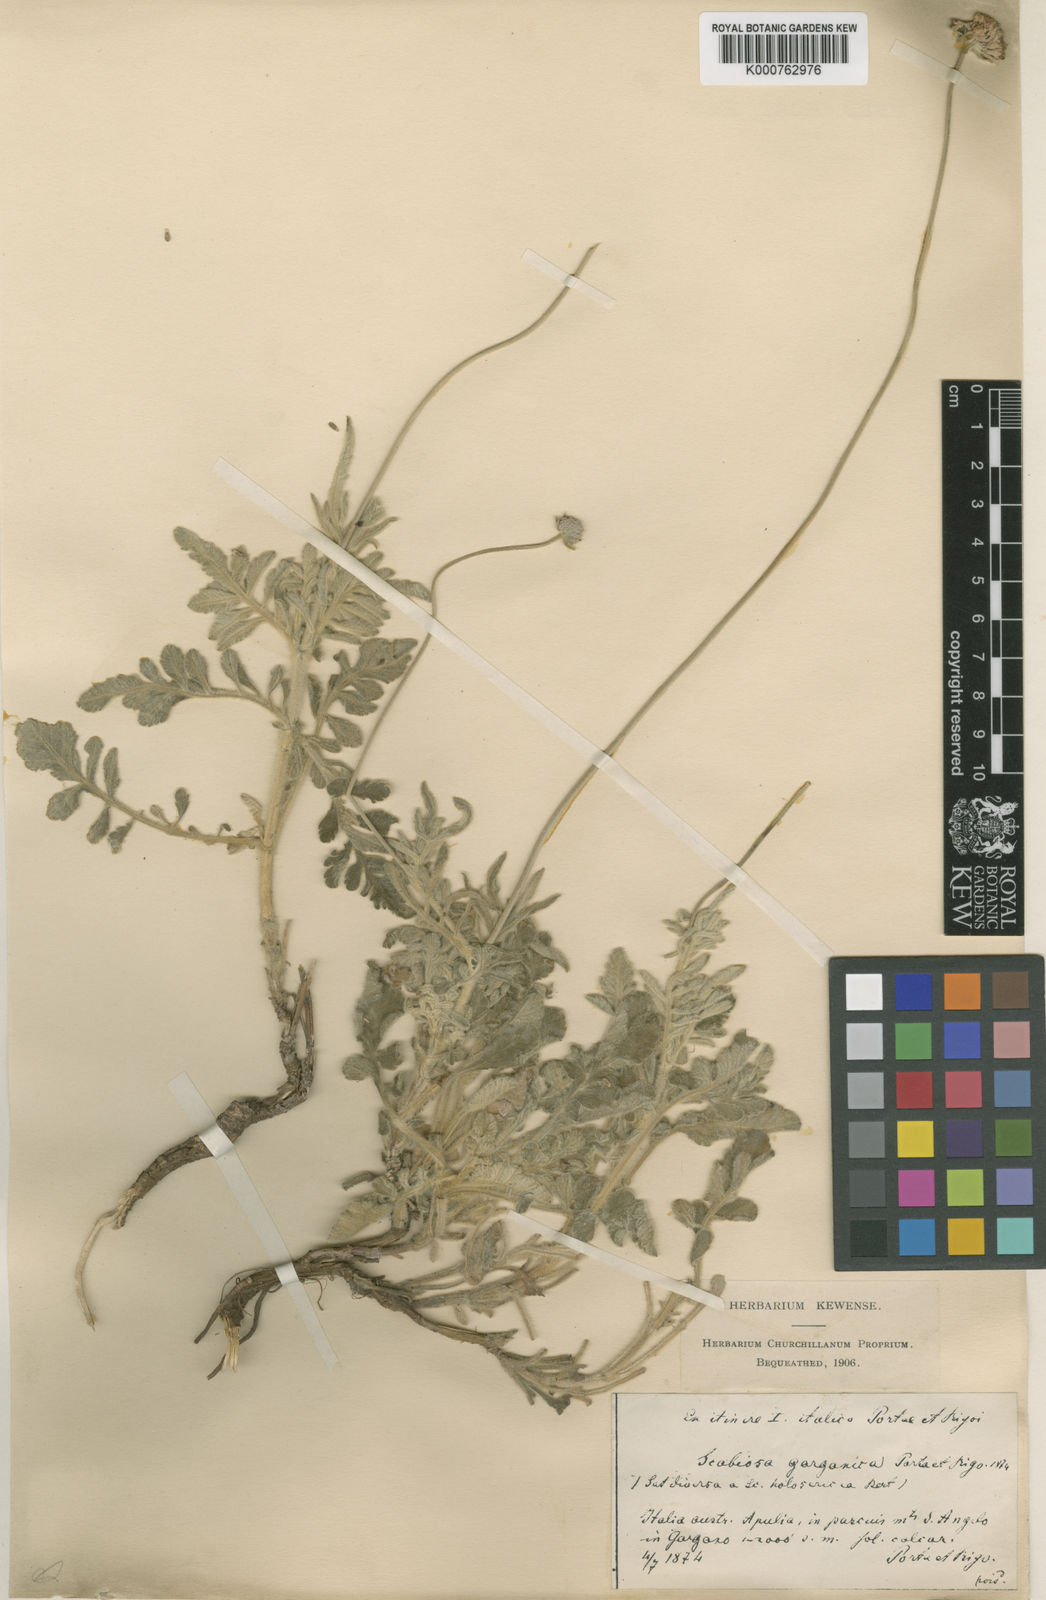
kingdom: Plantae
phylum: Tracheophyta
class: Magnoliopsida
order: Dipsacales
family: Caprifoliaceae
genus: Scabiosa
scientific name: Scabiosa holosericea
